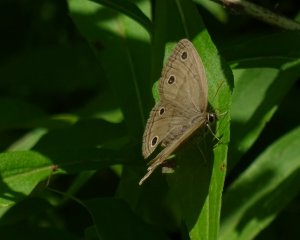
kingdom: Animalia
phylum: Arthropoda
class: Insecta
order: Lepidoptera
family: Nymphalidae
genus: Euptychia
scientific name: Euptychia cymela
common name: Little Wood Satyr
